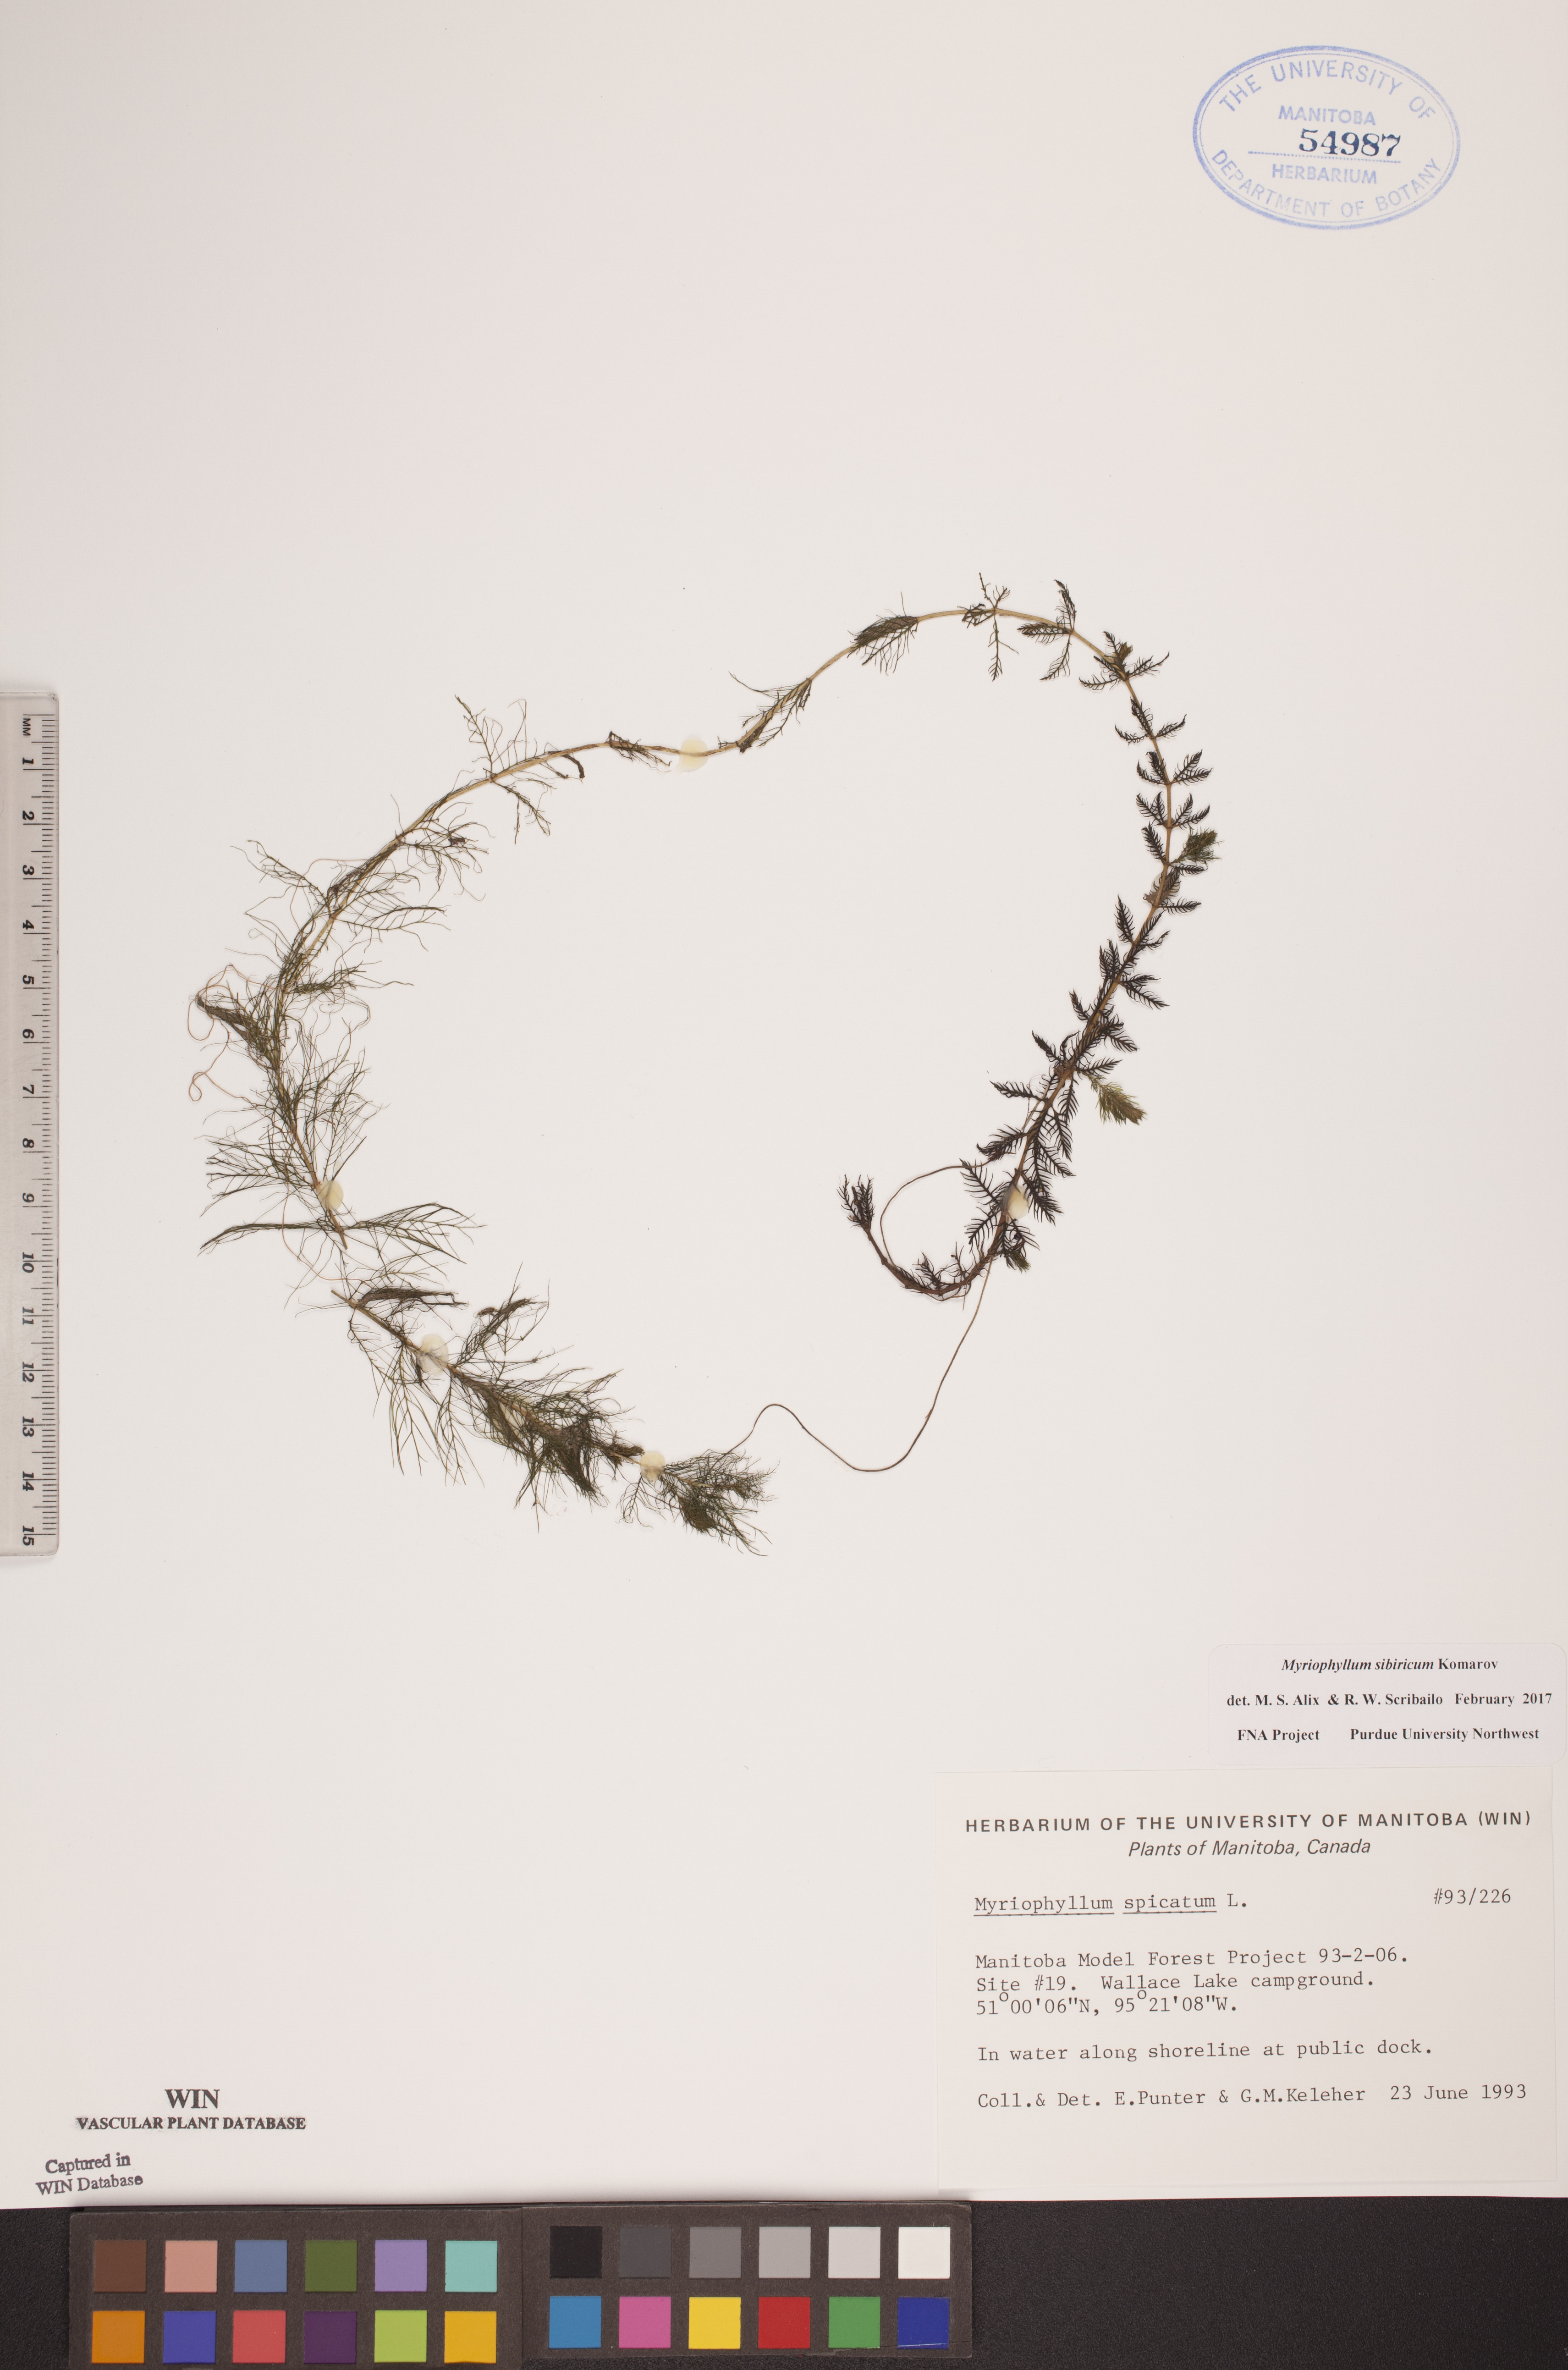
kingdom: Plantae
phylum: Tracheophyta
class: Magnoliopsida
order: Saxifragales
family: Haloragaceae
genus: Myriophyllum
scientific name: Myriophyllum sibiricum
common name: Siberian water-milfoil
